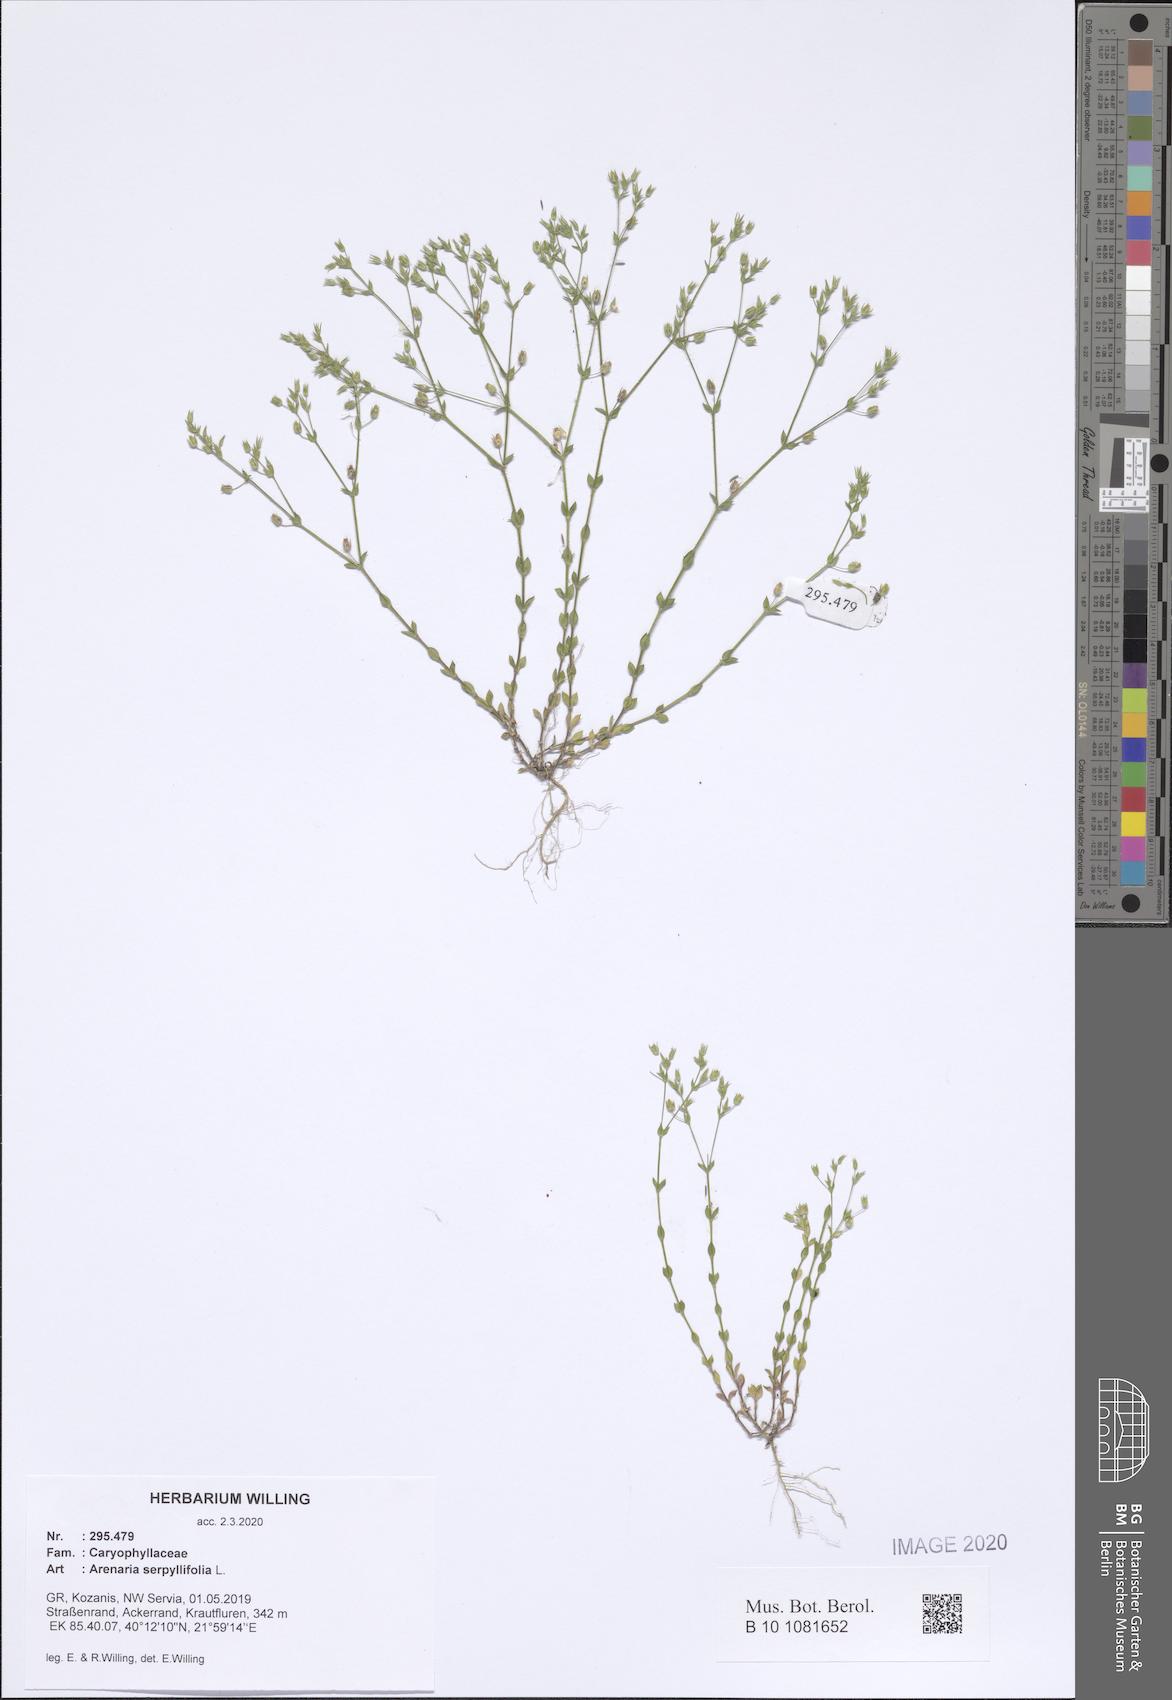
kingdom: Plantae
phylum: Tracheophyta
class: Magnoliopsida
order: Caryophyllales
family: Caryophyllaceae
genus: Arenaria
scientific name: Arenaria serpyllifolia
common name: Thyme-leaved sandwort
